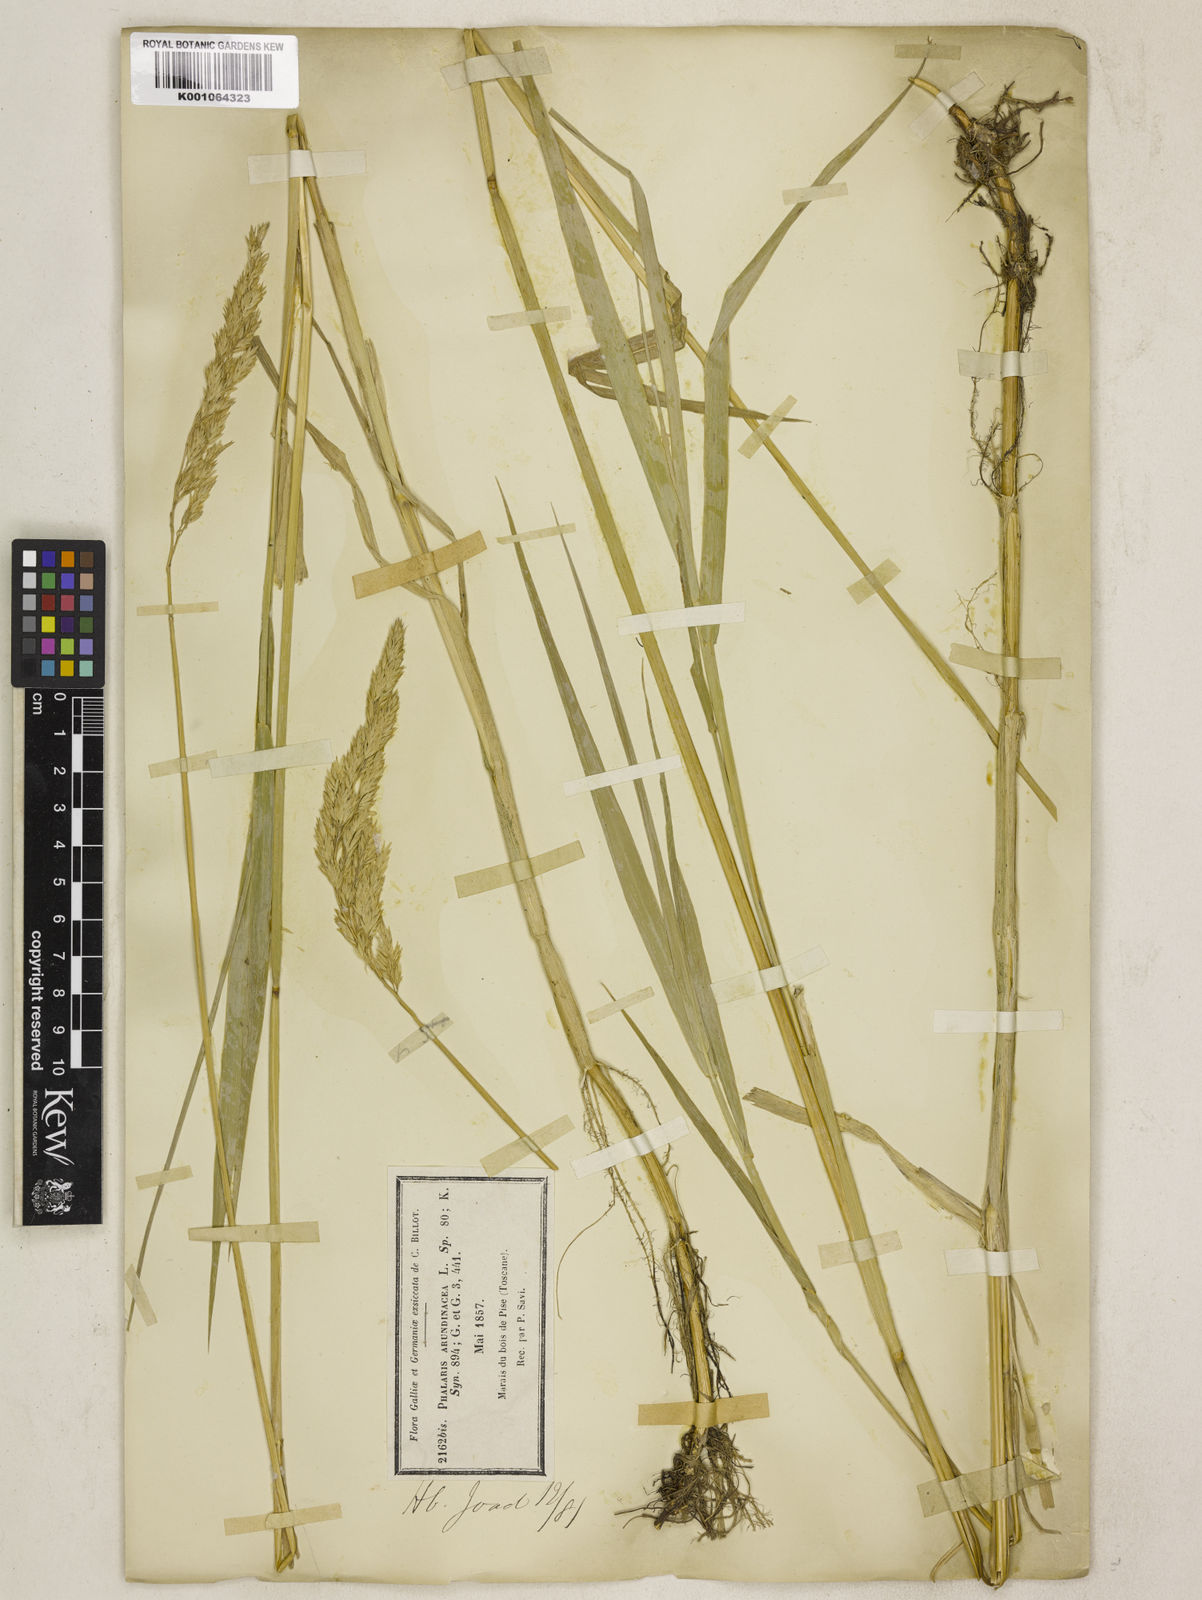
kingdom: Plantae
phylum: Tracheophyta
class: Liliopsida
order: Poales
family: Poaceae
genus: Phalaris
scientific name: Phalaris arundinacea
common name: Reed canary-grass
